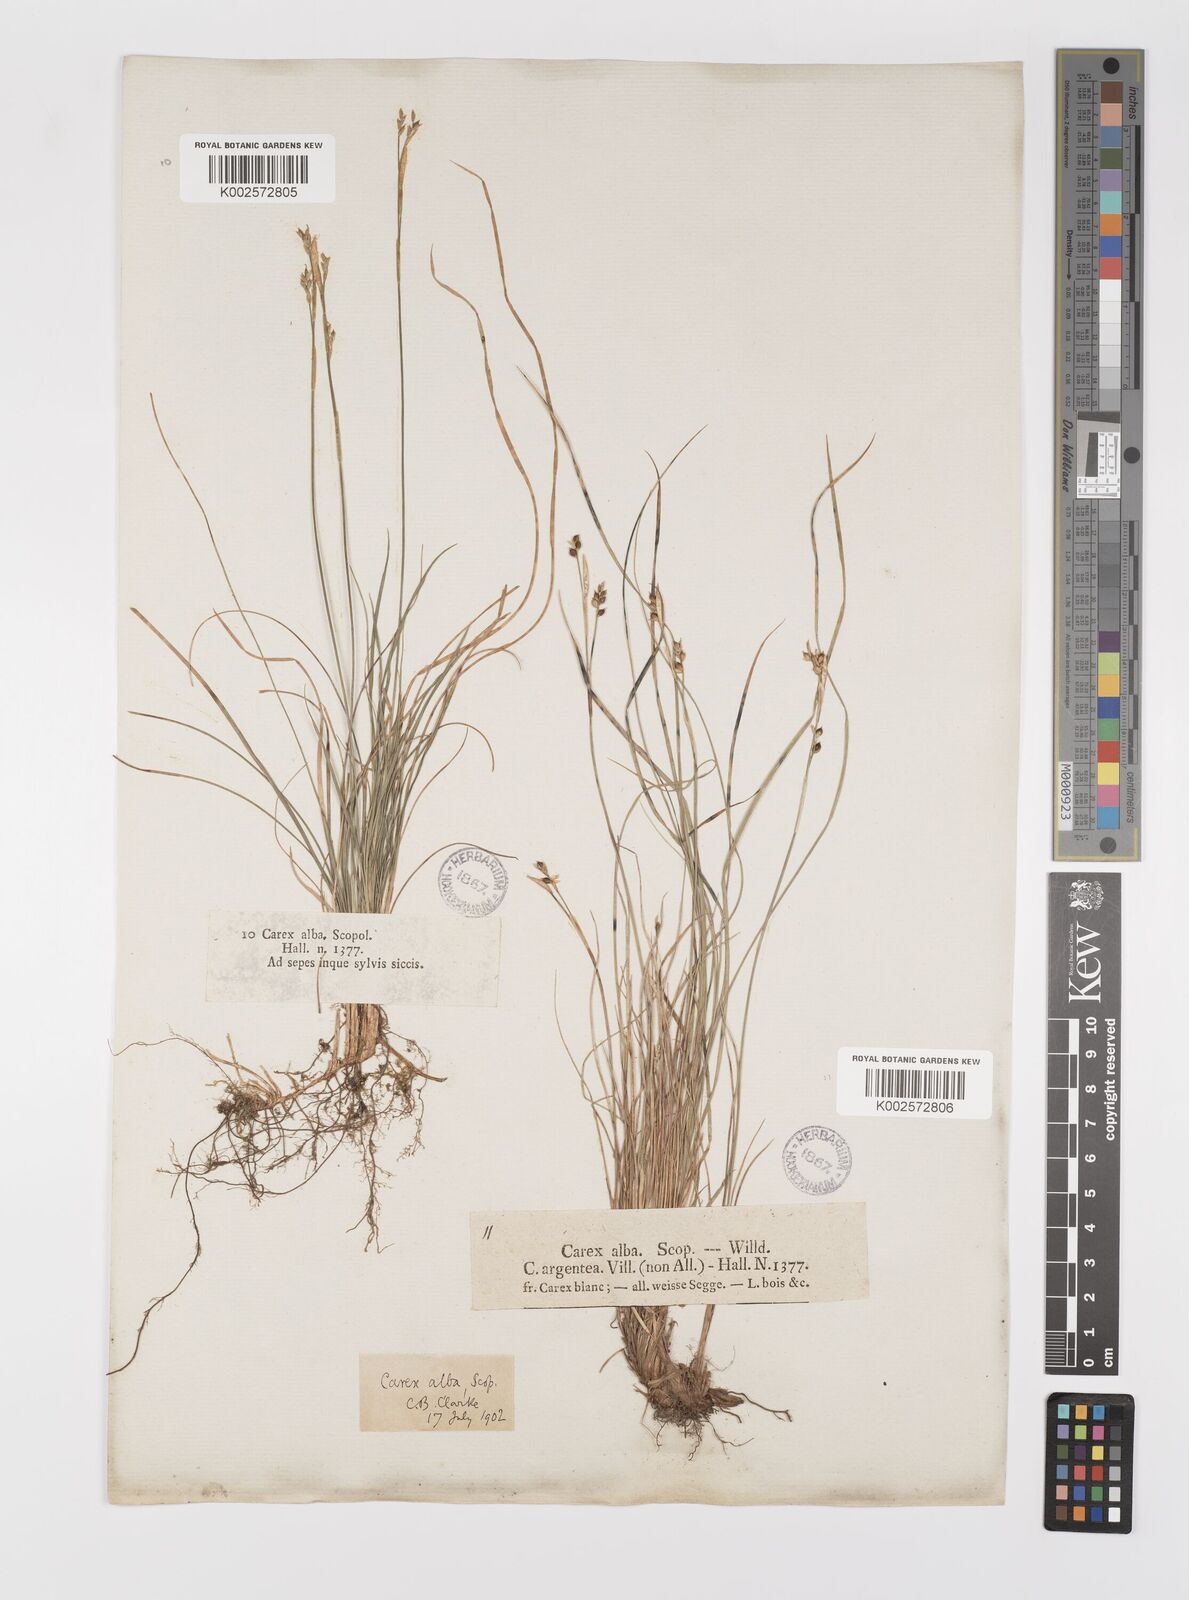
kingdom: Plantae
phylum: Tracheophyta
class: Liliopsida
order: Poales
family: Cyperaceae
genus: Carex
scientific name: Carex alba
